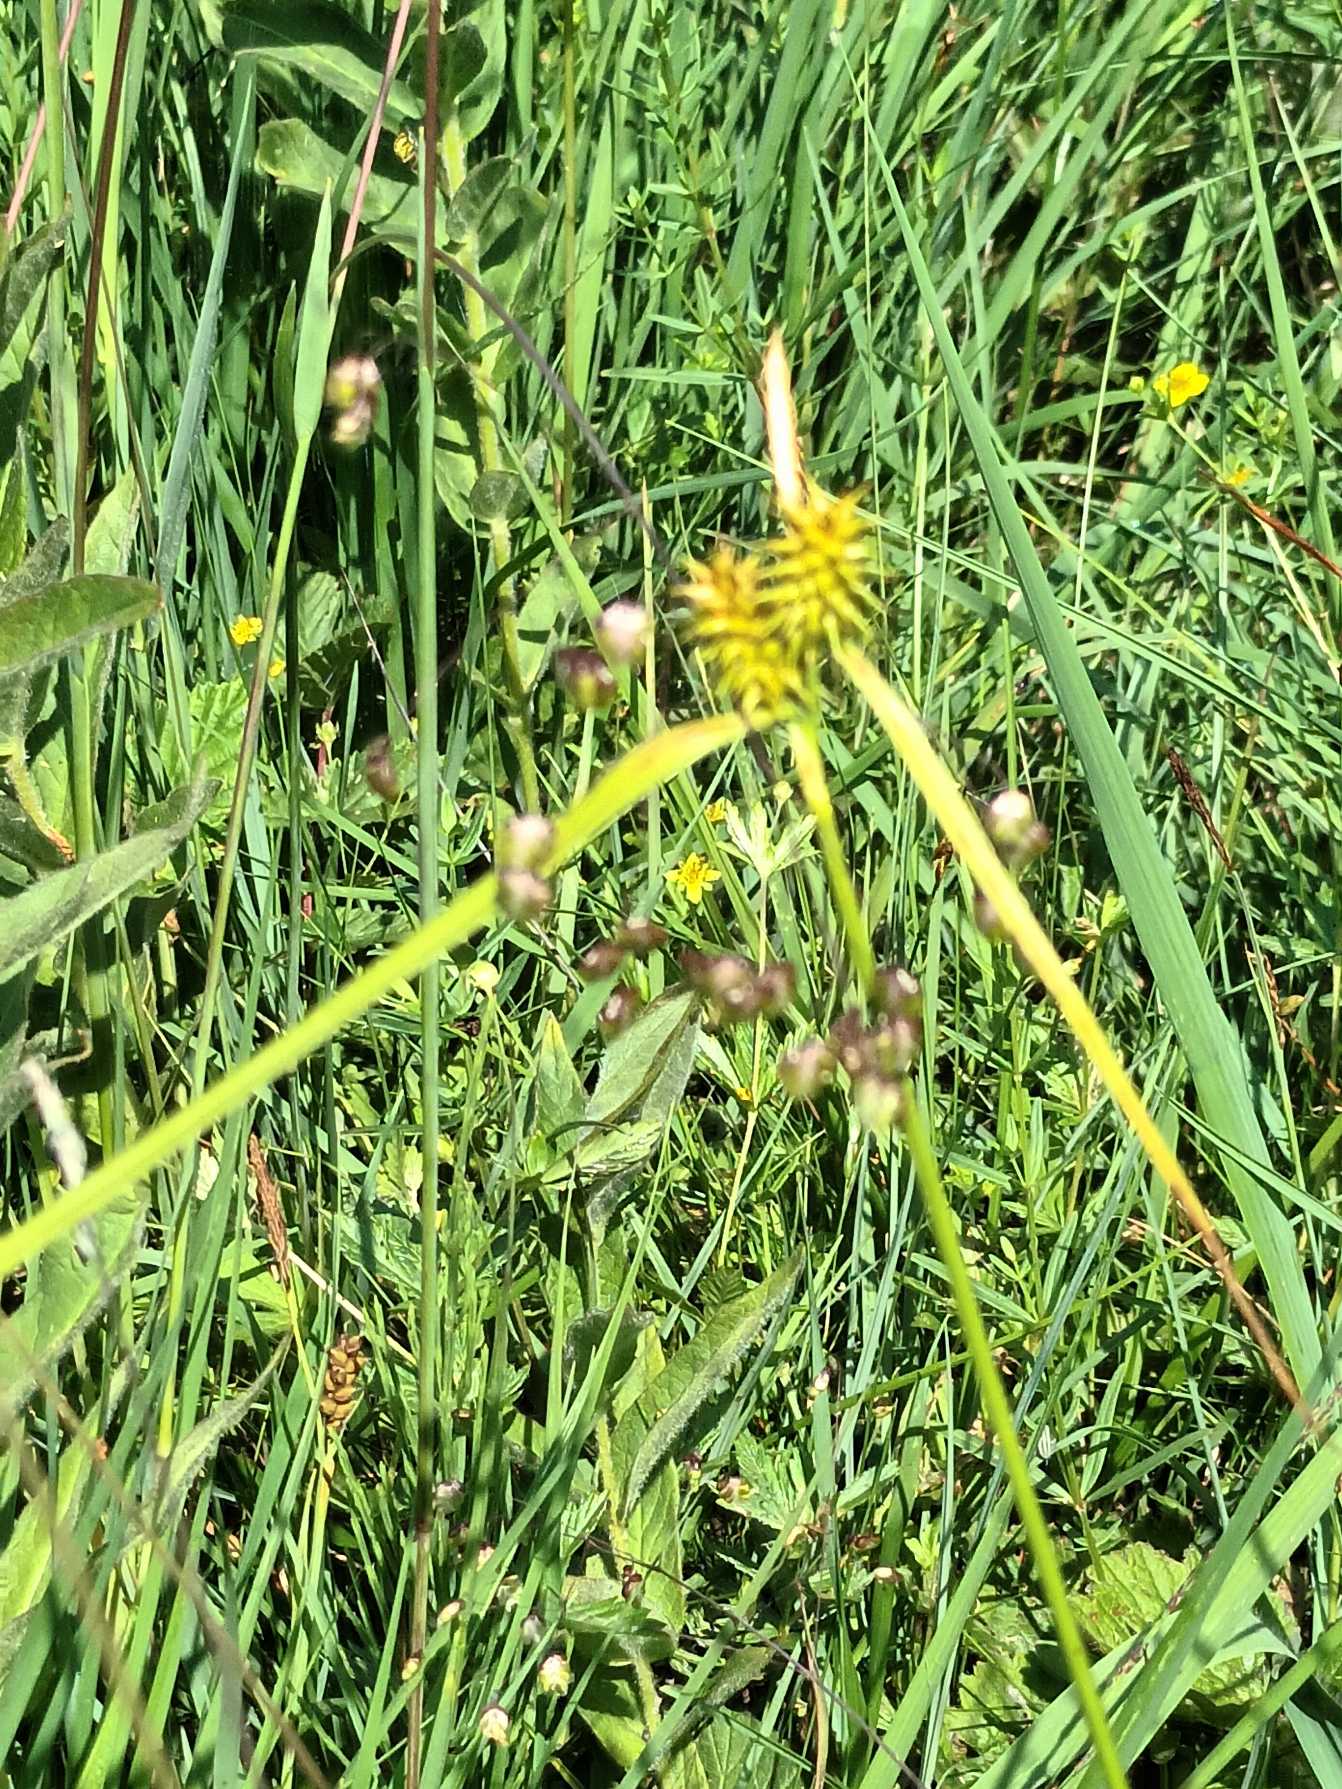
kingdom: Plantae
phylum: Tracheophyta
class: Liliopsida
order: Poales
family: Cyperaceae
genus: Carex
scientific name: Carex flava
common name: Gul star
